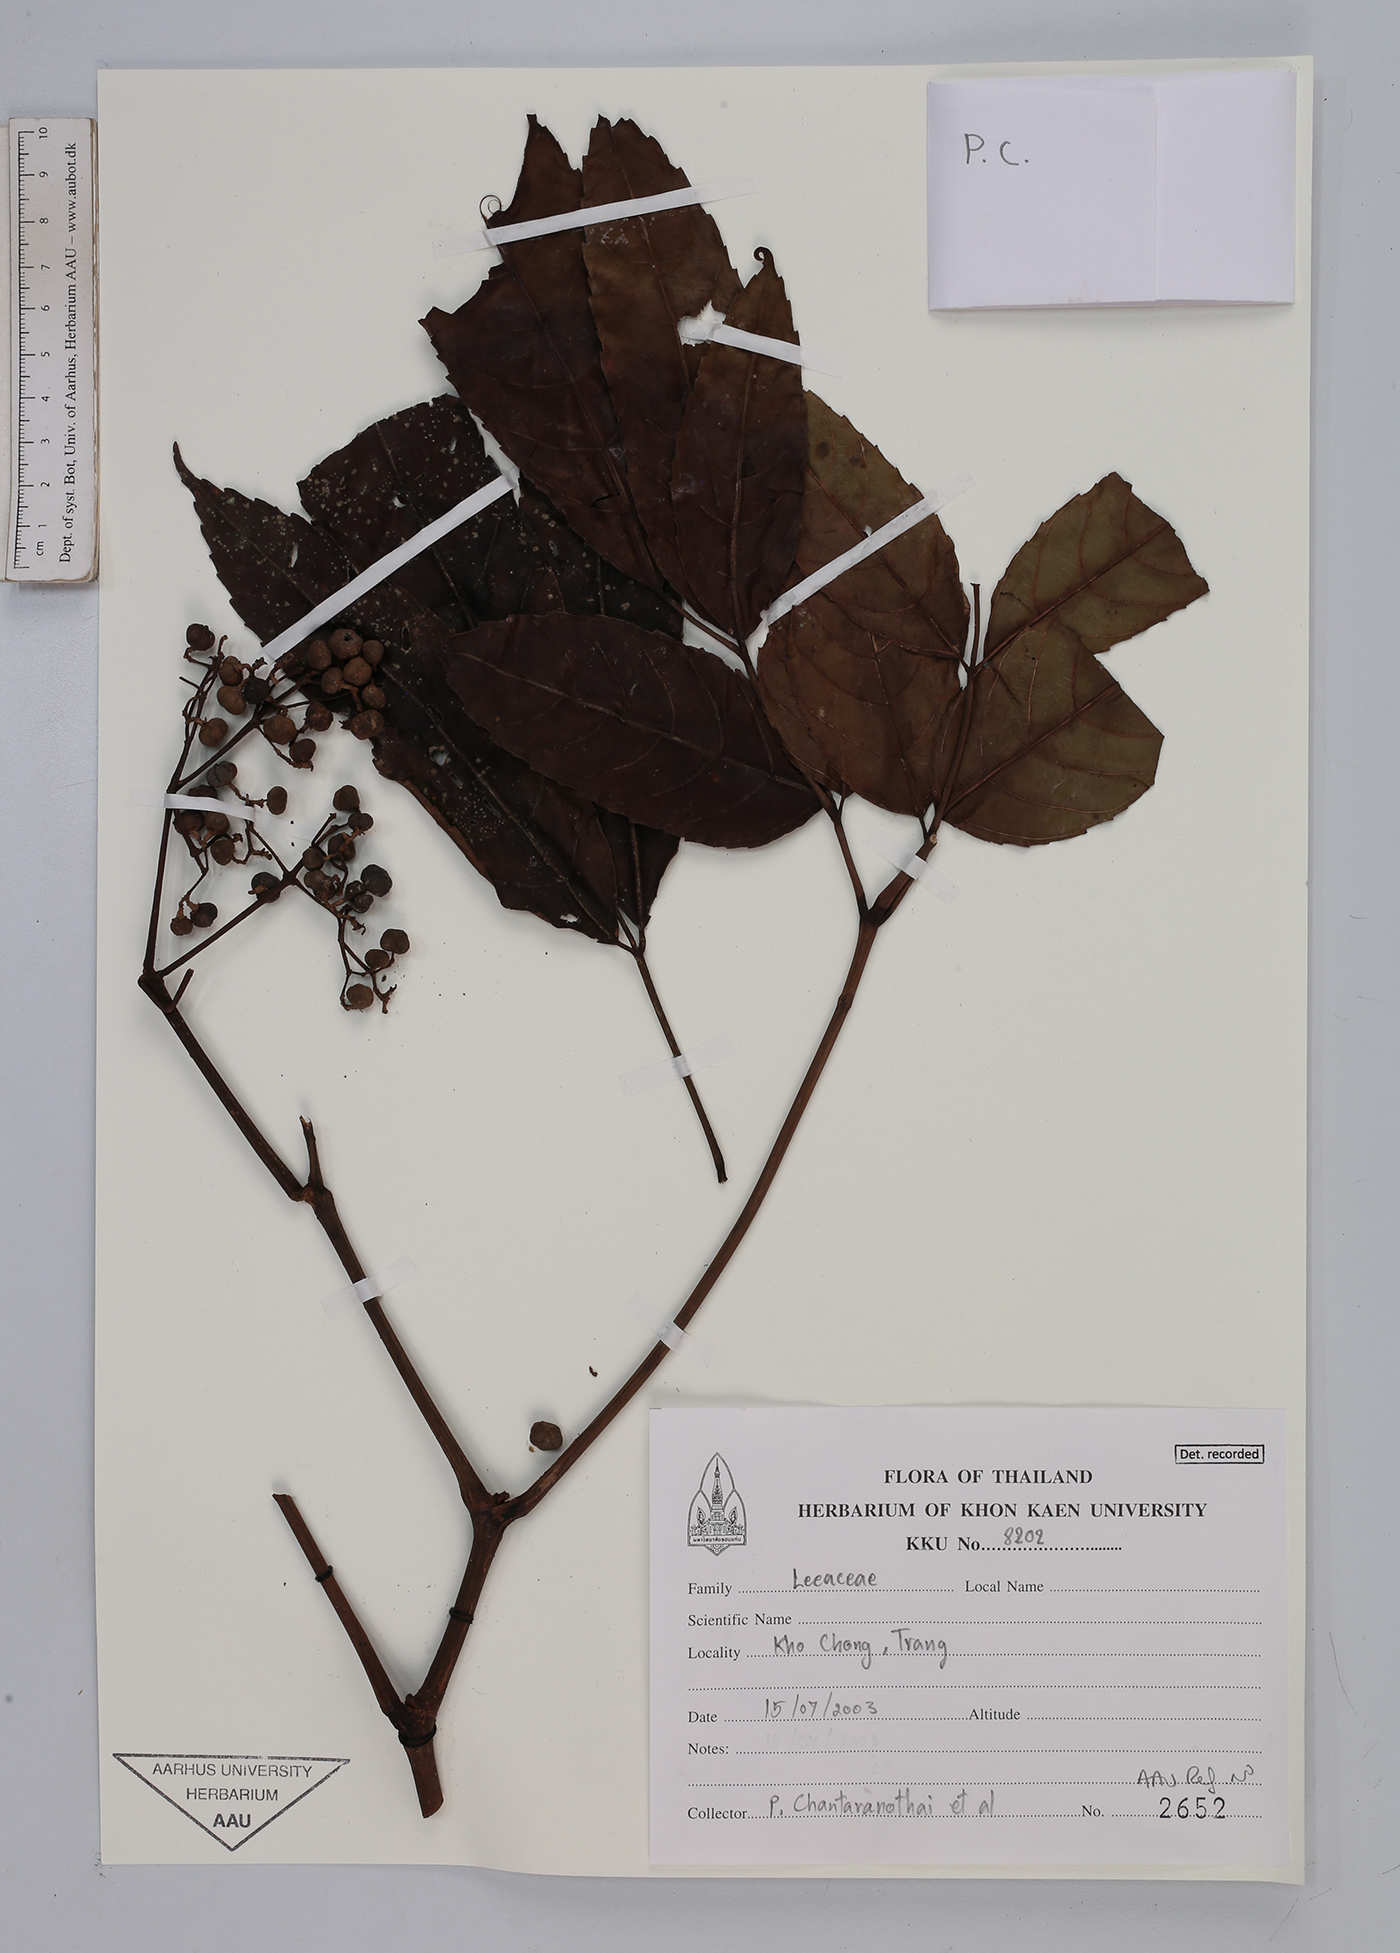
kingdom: Plantae
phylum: Tracheophyta
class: Magnoliopsida
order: Vitales
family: Vitaceae
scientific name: Vitaceae
